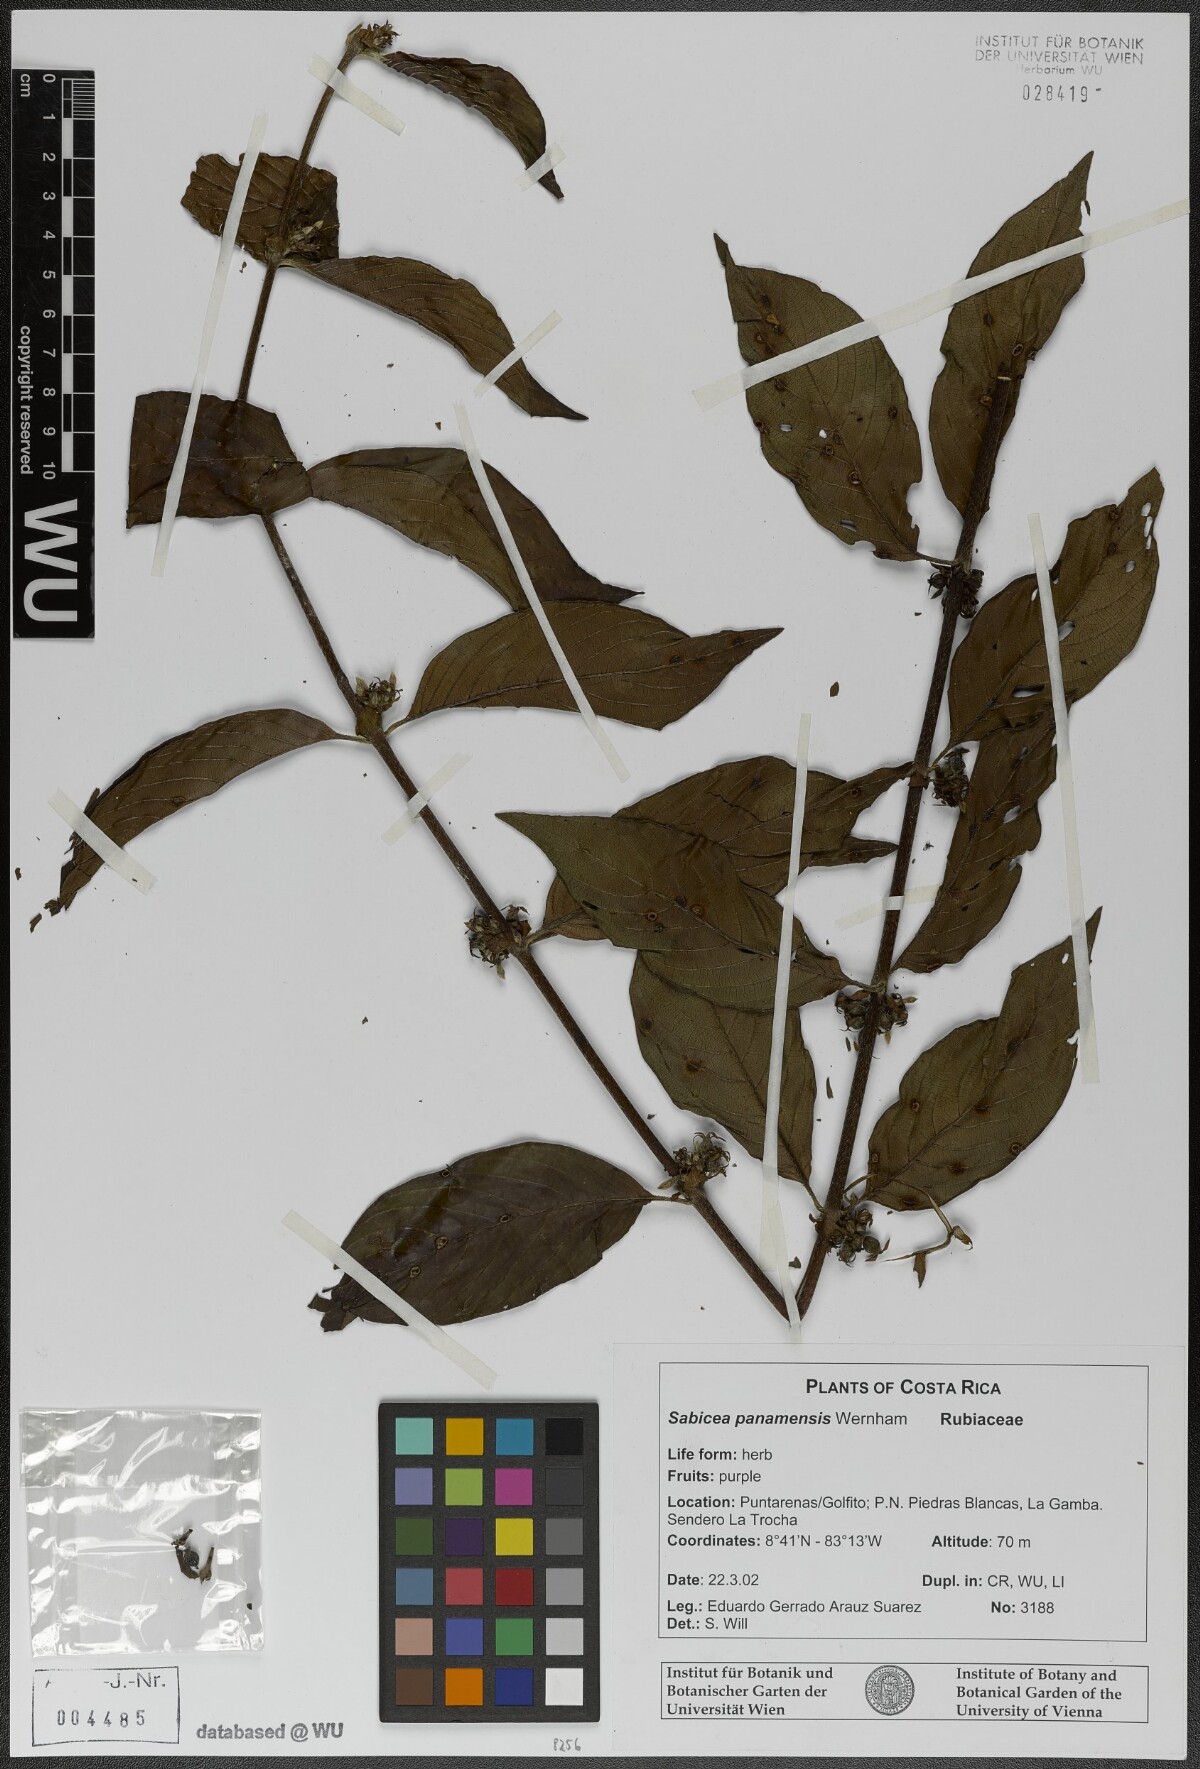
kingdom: Plantae
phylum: Tracheophyta
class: Magnoliopsida
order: Gentianales
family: Rubiaceae
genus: Sabicea
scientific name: Sabicea panamensis
